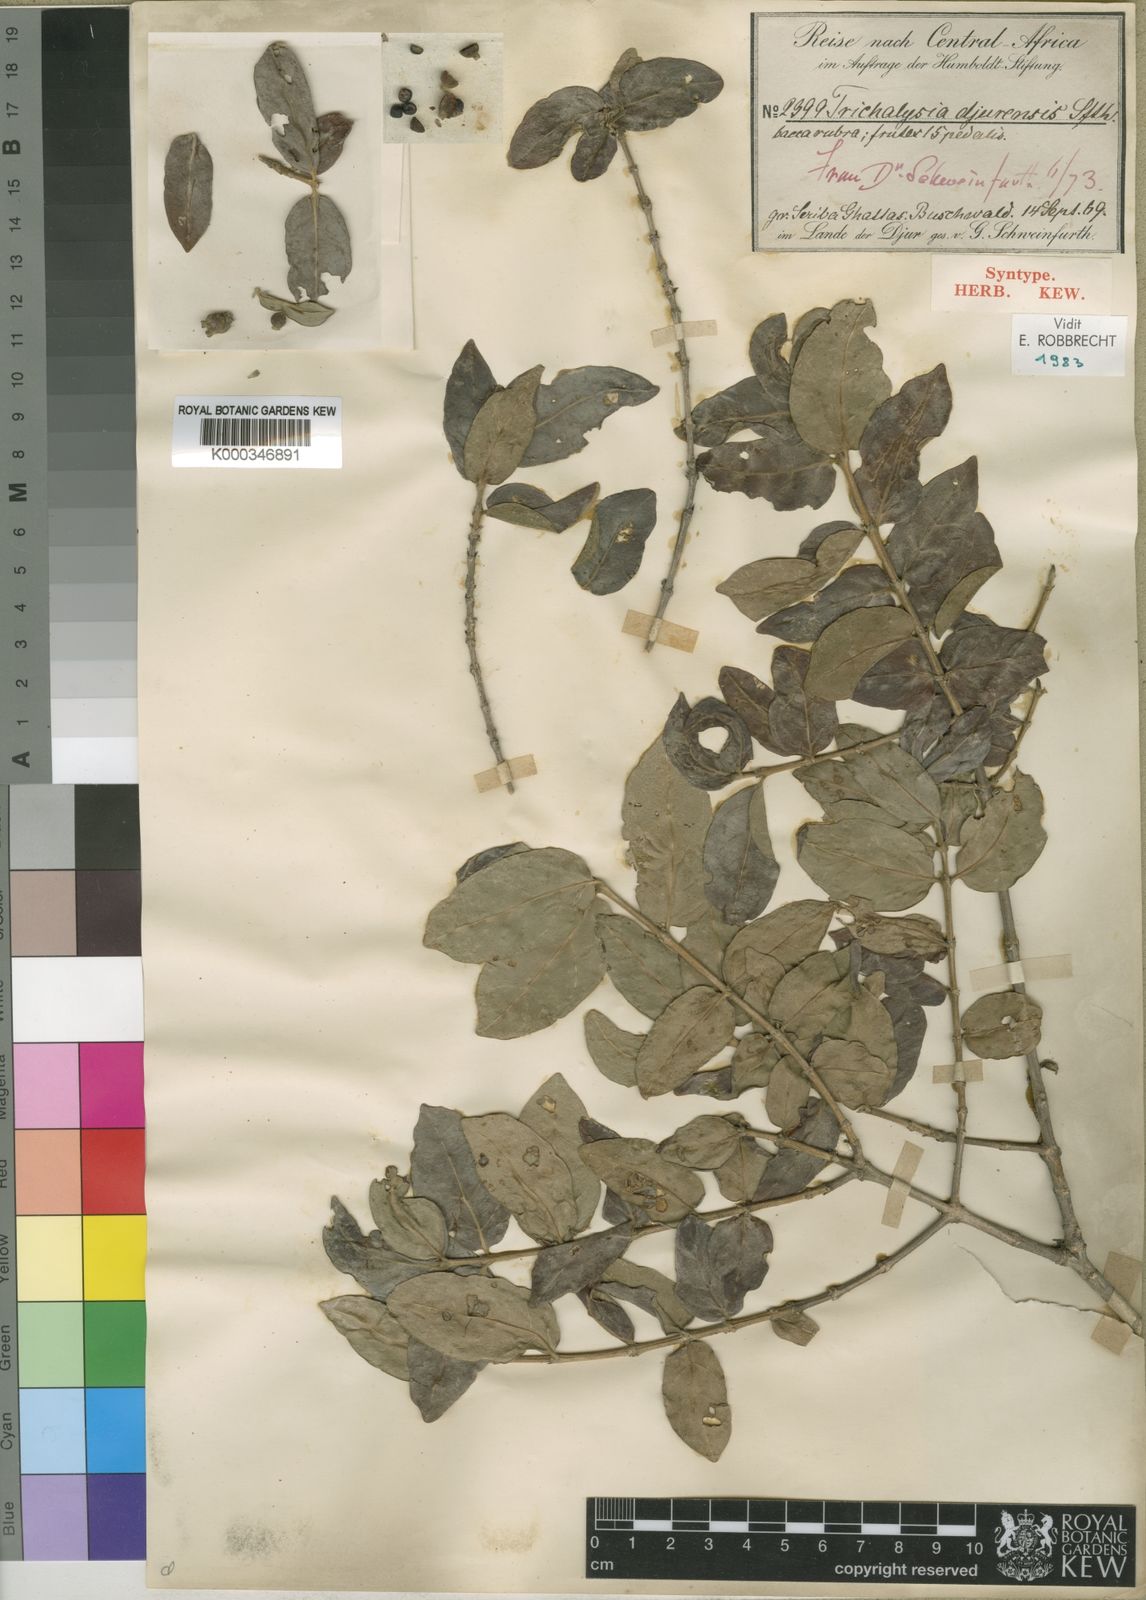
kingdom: Plantae
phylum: Tracheophyta
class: Magnoliopsida
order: Gentianales
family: Rubiaceae
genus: Tricalysia
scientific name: Tricalysia niamniamensis
